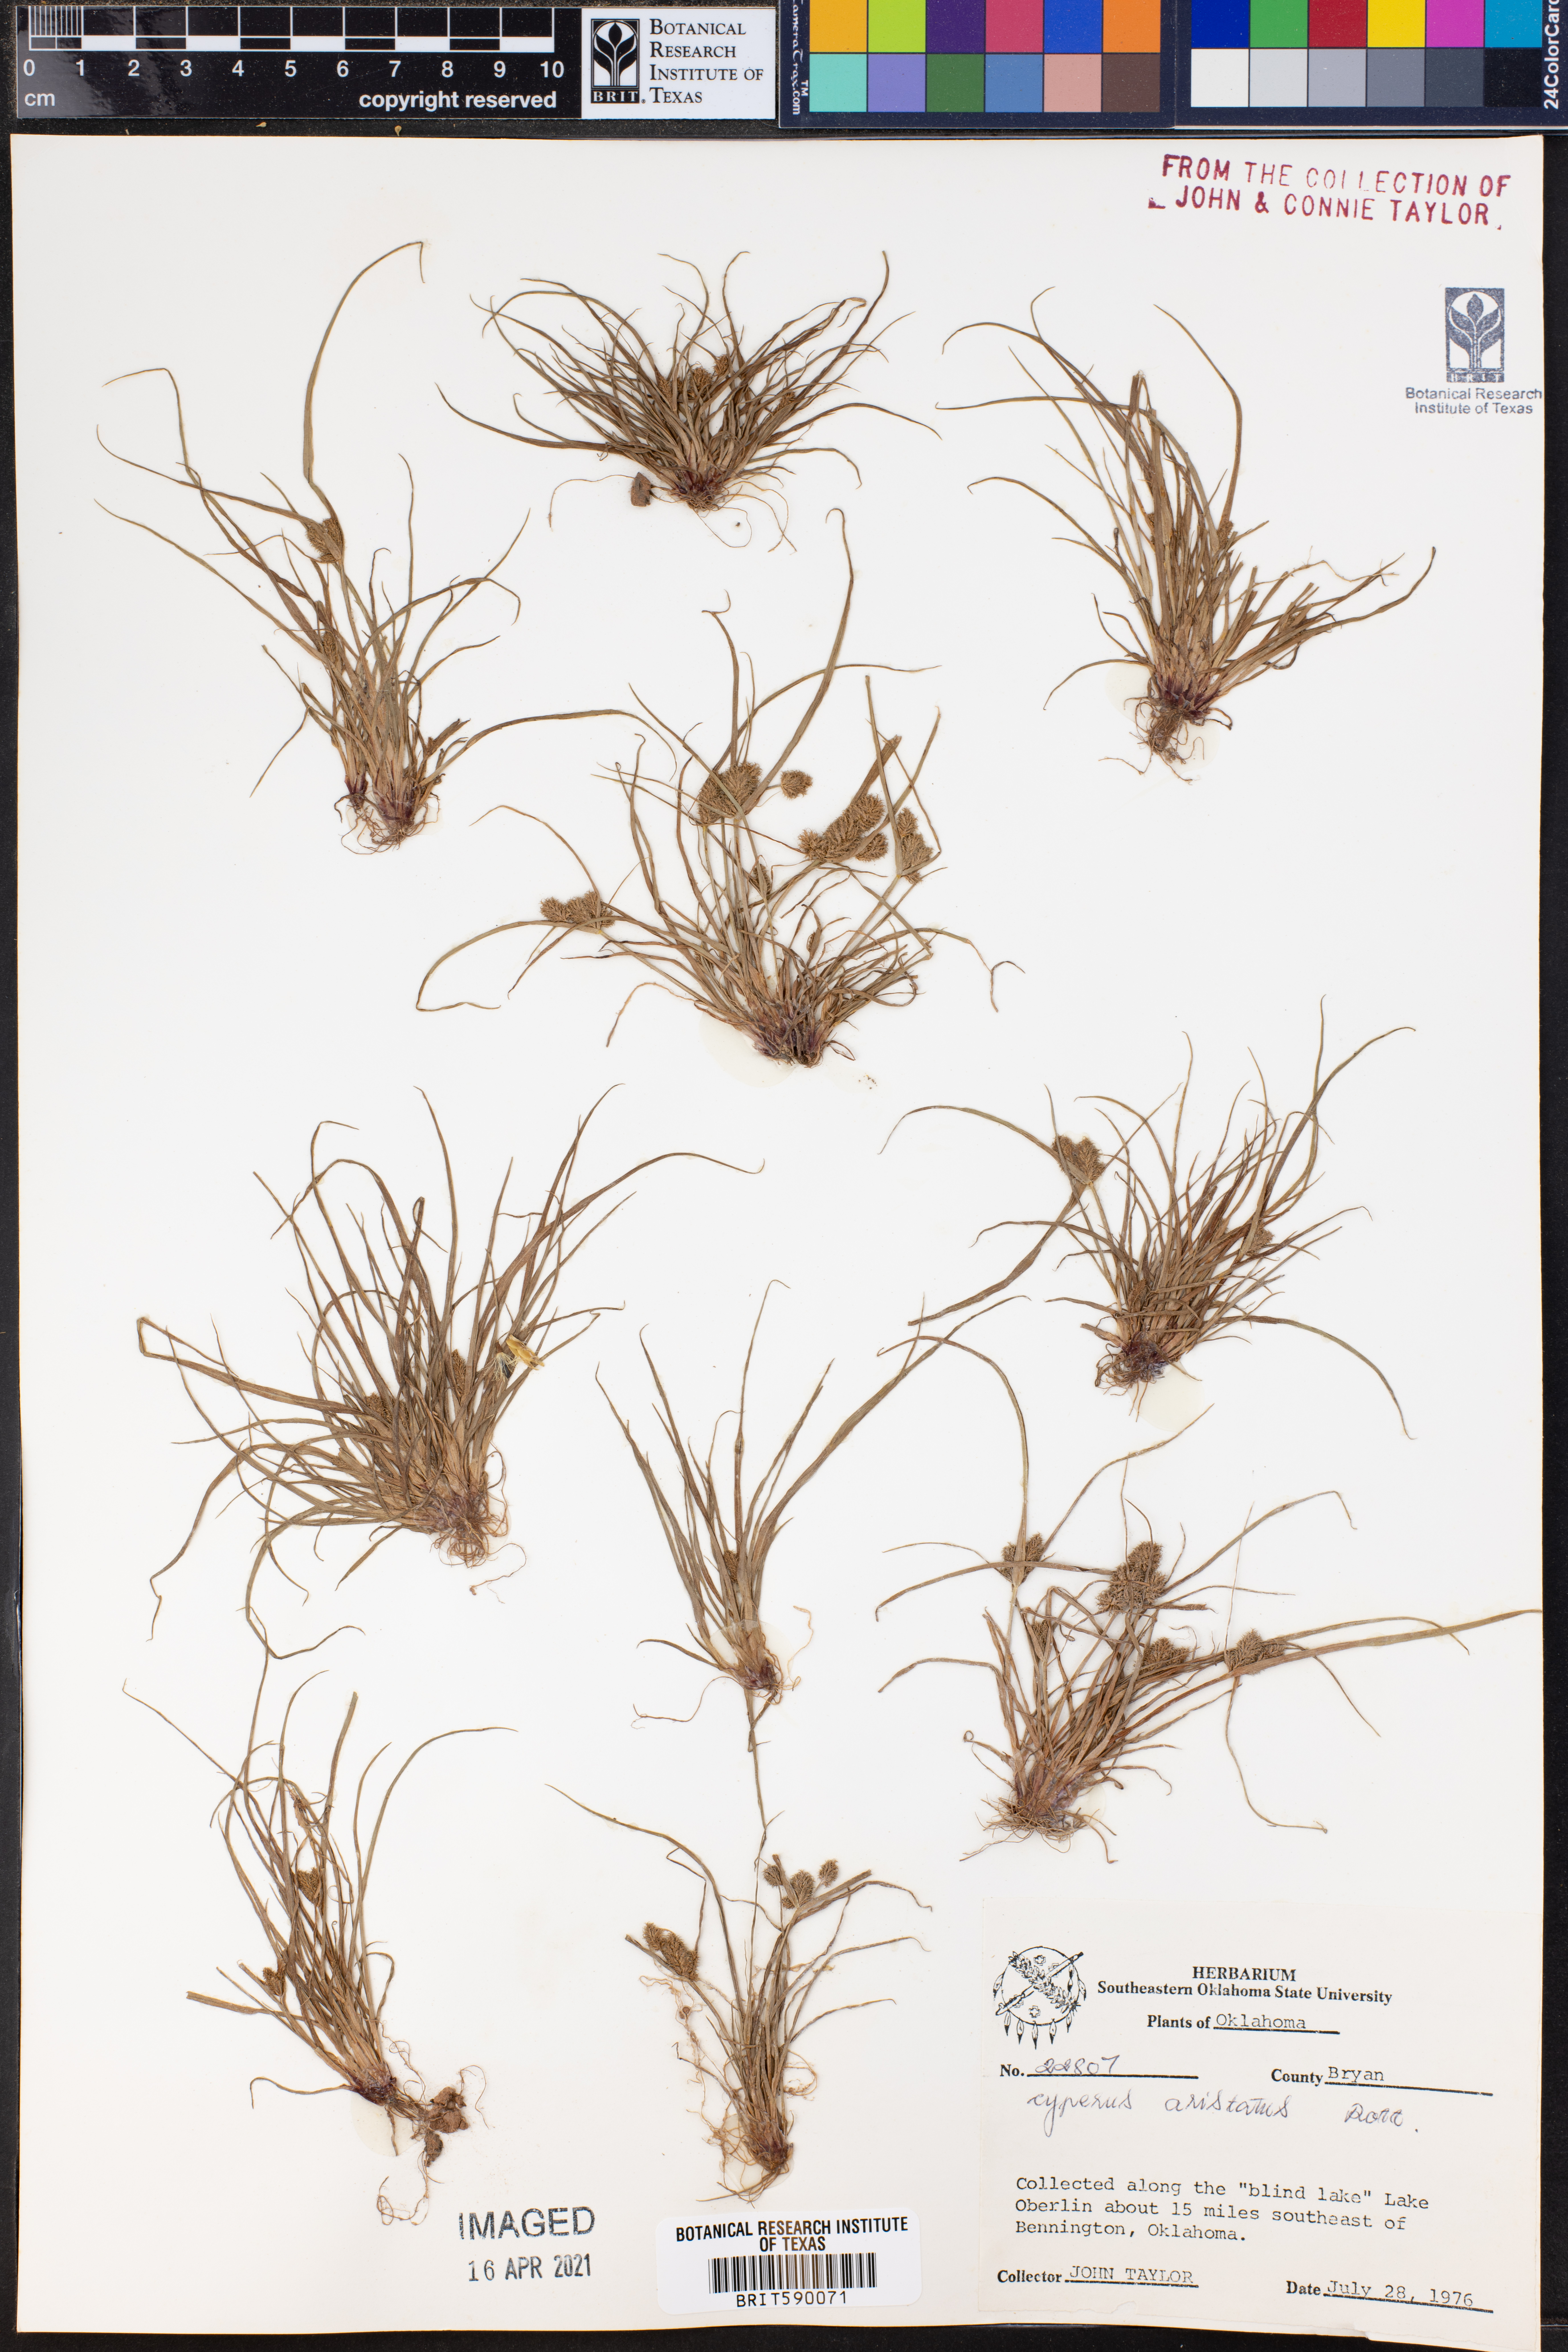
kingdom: Plantae
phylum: Tracheophyta
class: Liliopsida
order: Poales
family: Cyperaceae
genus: Cyperus
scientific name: Cyperus squarrosus
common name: Awned cyperus
